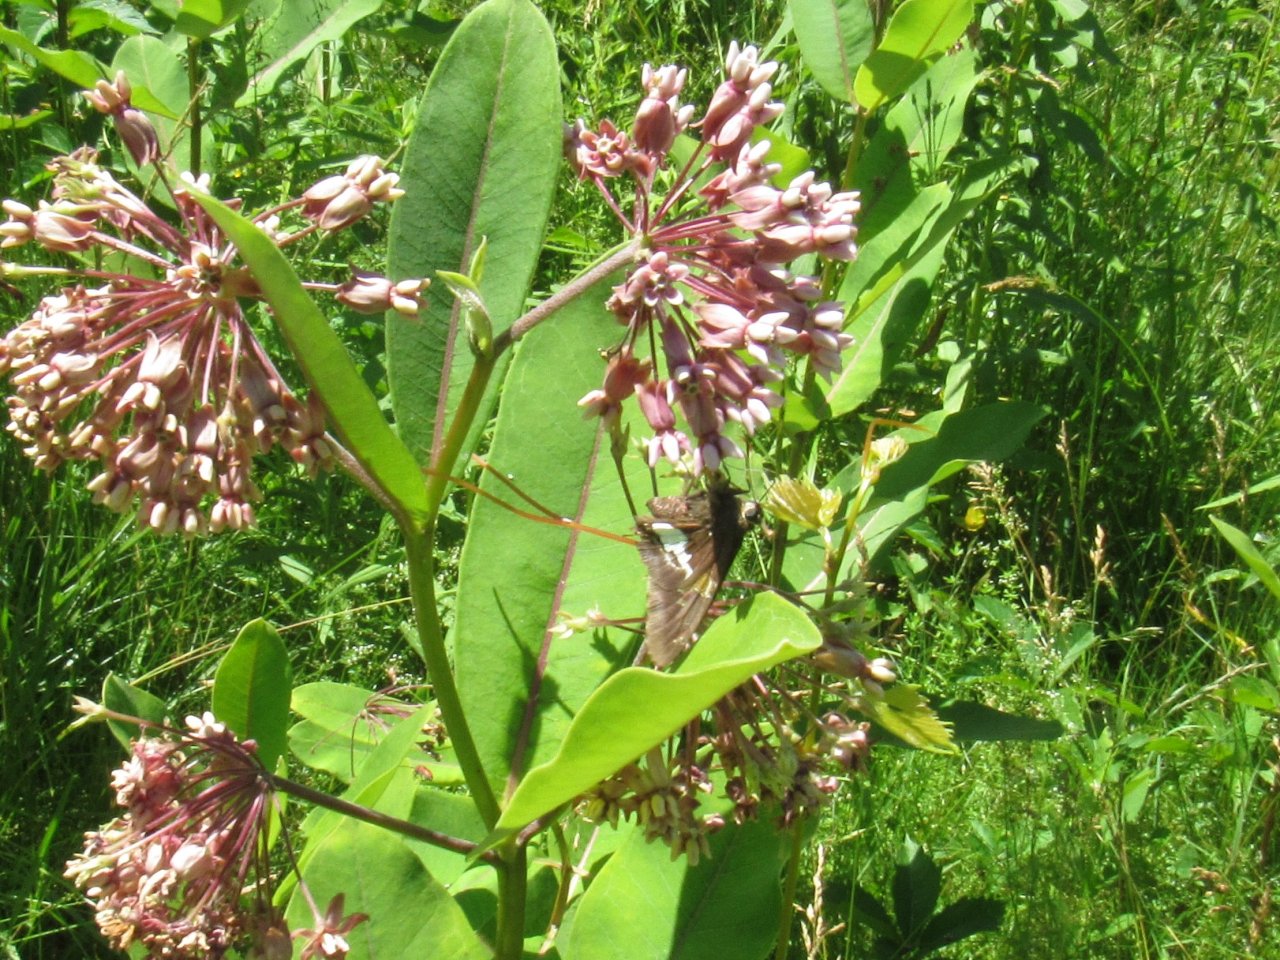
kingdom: Animalia
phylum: Arthropoda
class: Insecta
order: Lepidoptera
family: Hesperiidae
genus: Epargyreus
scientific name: Epargyreus clarus
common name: Silver-spotted Skipper
